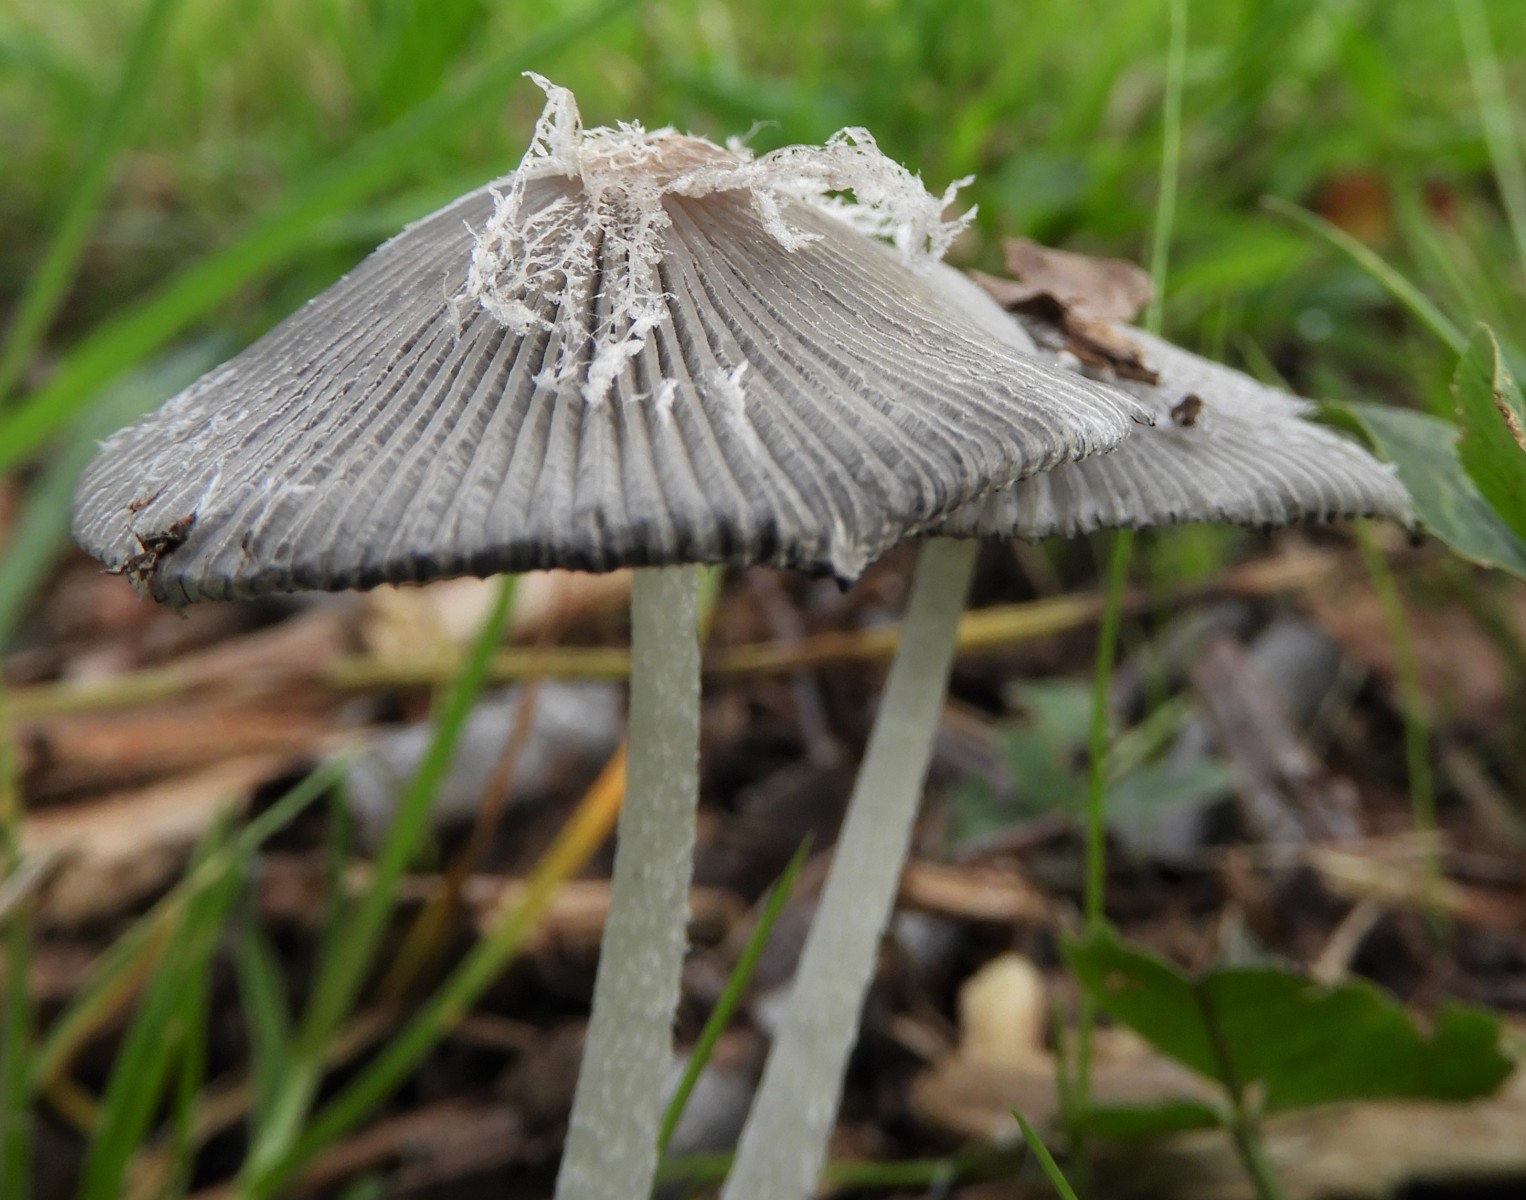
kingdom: Fungi
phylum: Basidiomycota
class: Agaricomycetes
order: Agaricales
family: Psathyrellaceae
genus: Coprinopsis
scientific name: Coprinopsis lagopus
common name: dunstokket blækhat
